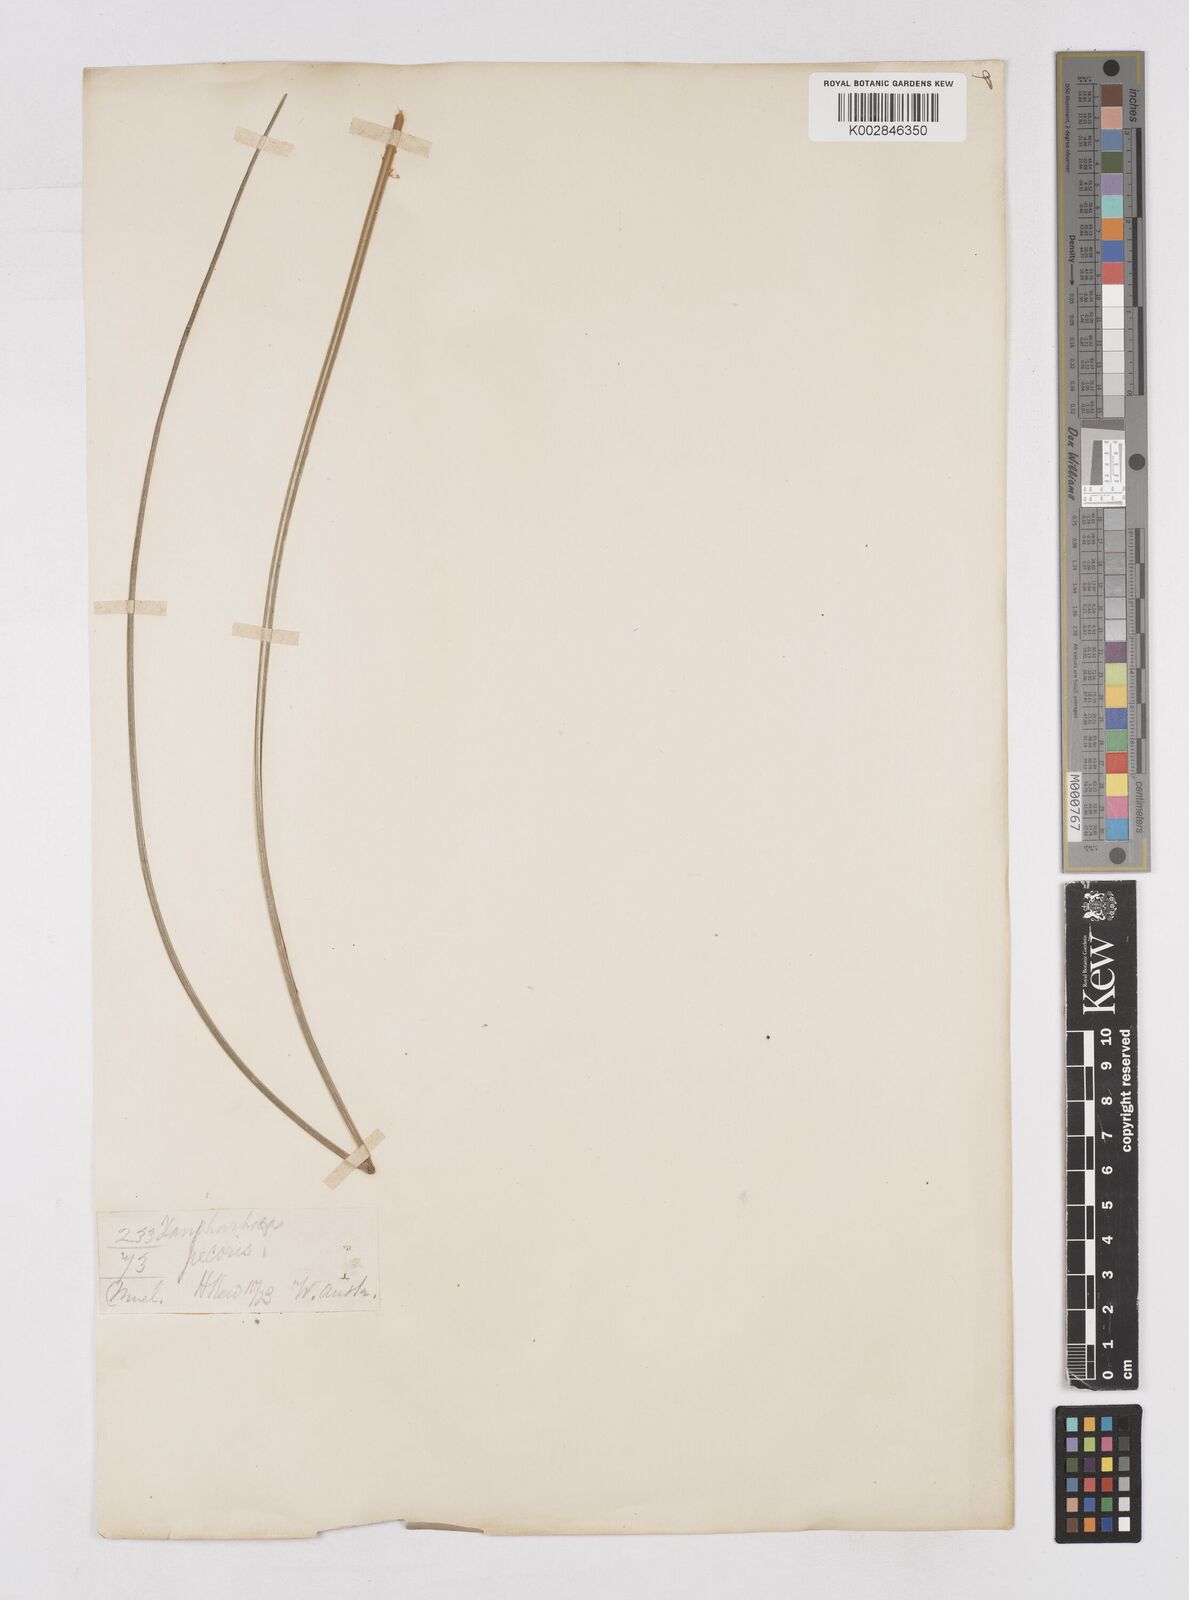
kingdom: Plantae
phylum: Tracheophyta
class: Liliopsida
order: Asparagales
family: Asphodelaceae
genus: Xanthorrhoea
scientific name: Xanthorrhoea
